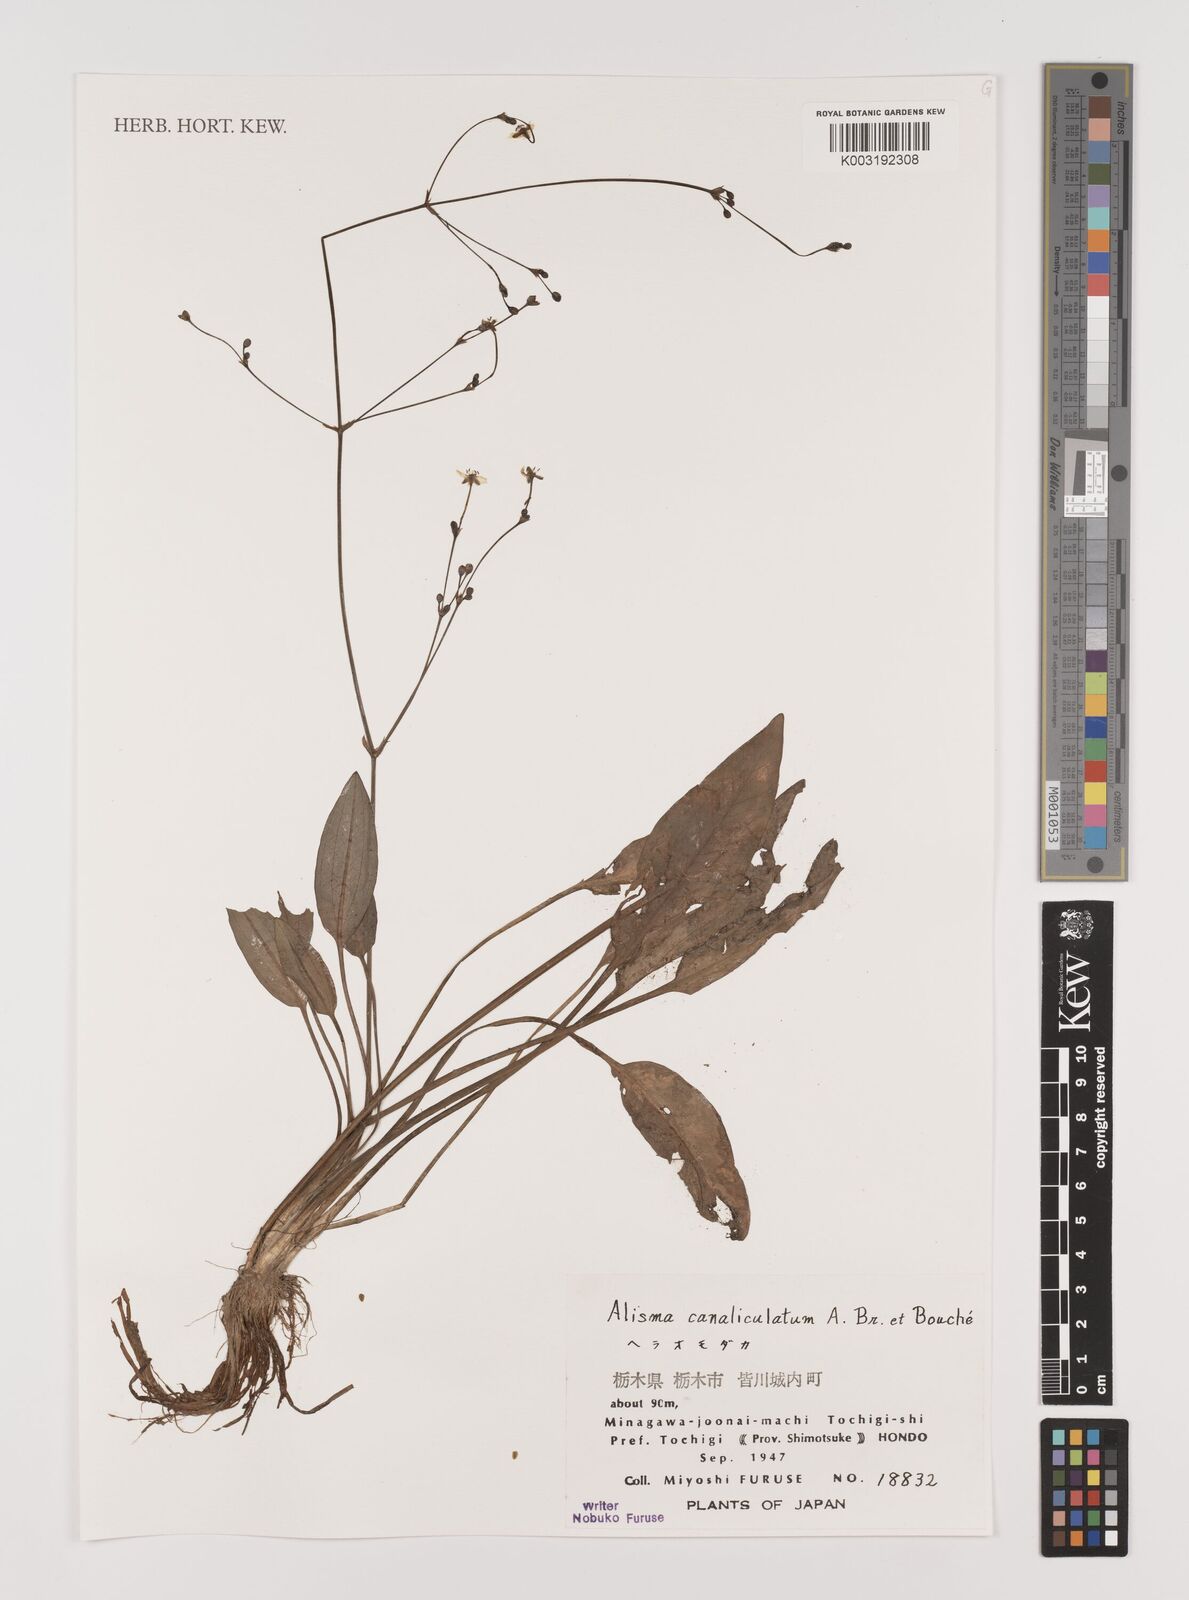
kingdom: Plantae
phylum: Tracheophyta
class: Liliopsida
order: Alismatales
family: Alismataceae
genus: Alisma
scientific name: Alisma canaliculatum
